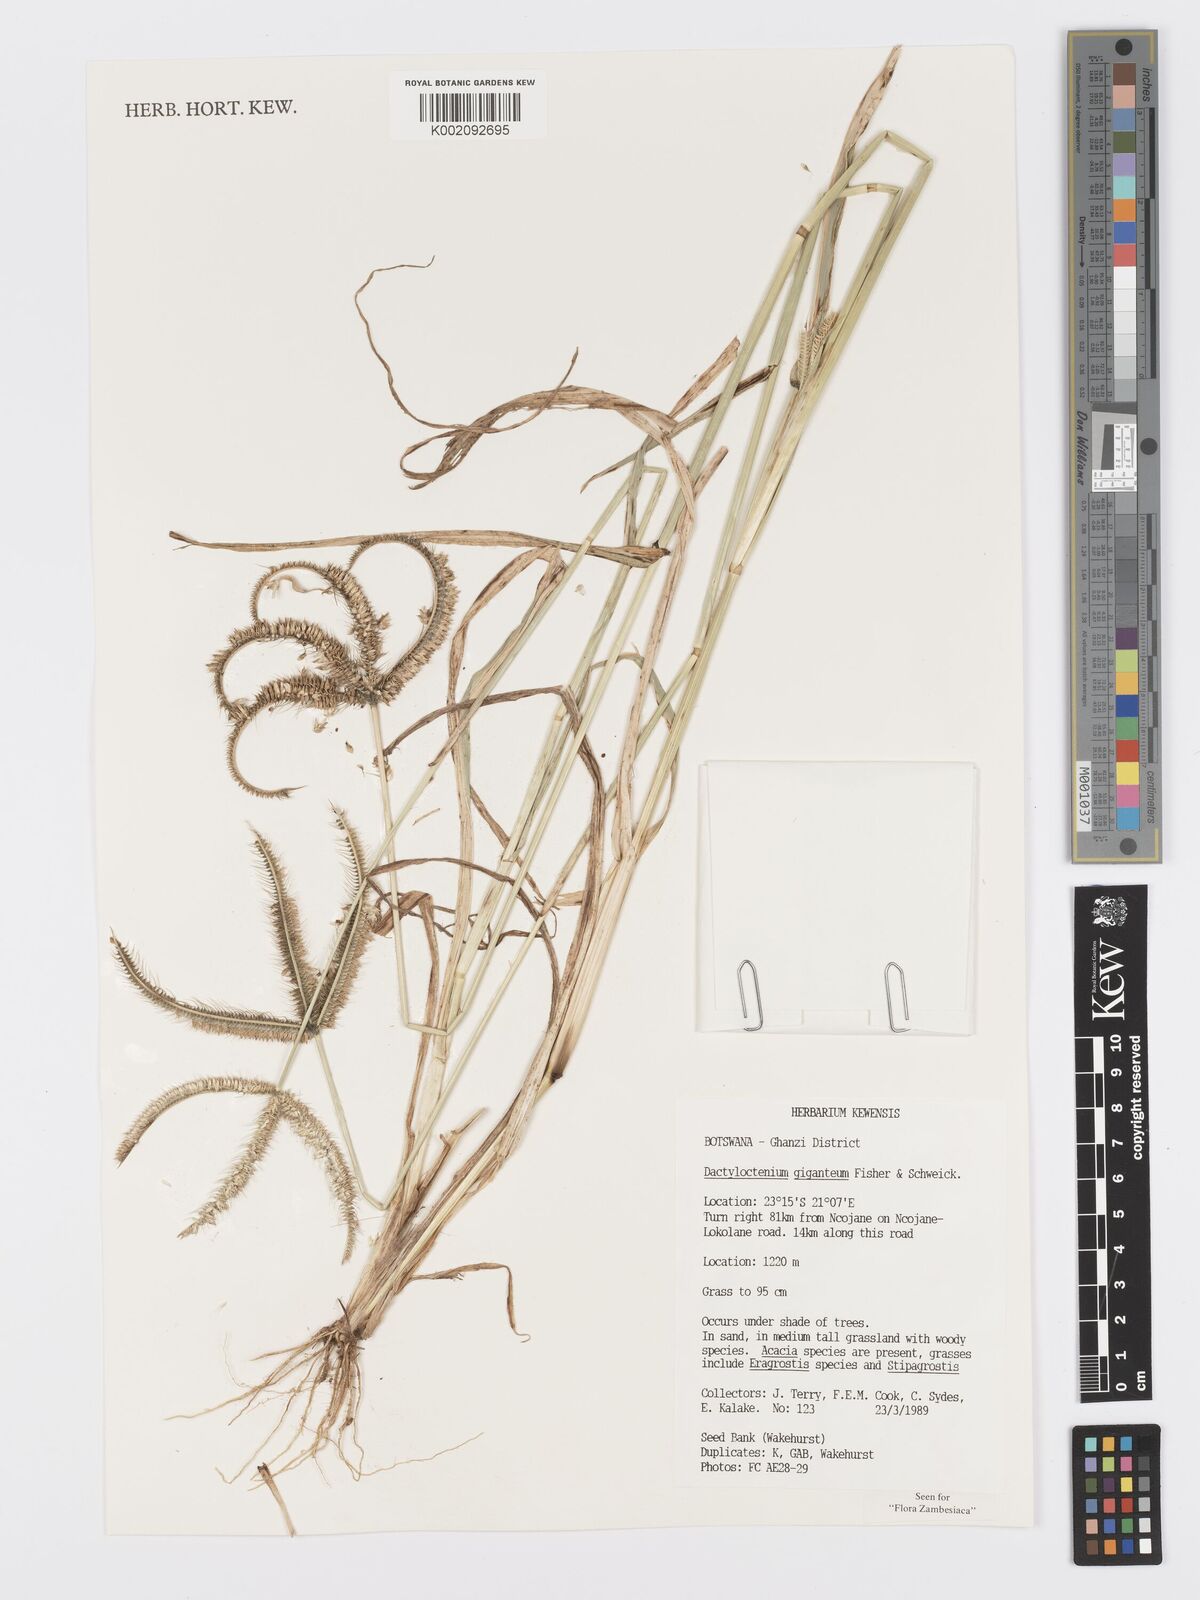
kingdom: Plantae
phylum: Tracheophyta
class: Liliopsida
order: Poales
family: Poaceae
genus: Dactyloctenium
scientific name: Dactyloctenium giganteum
